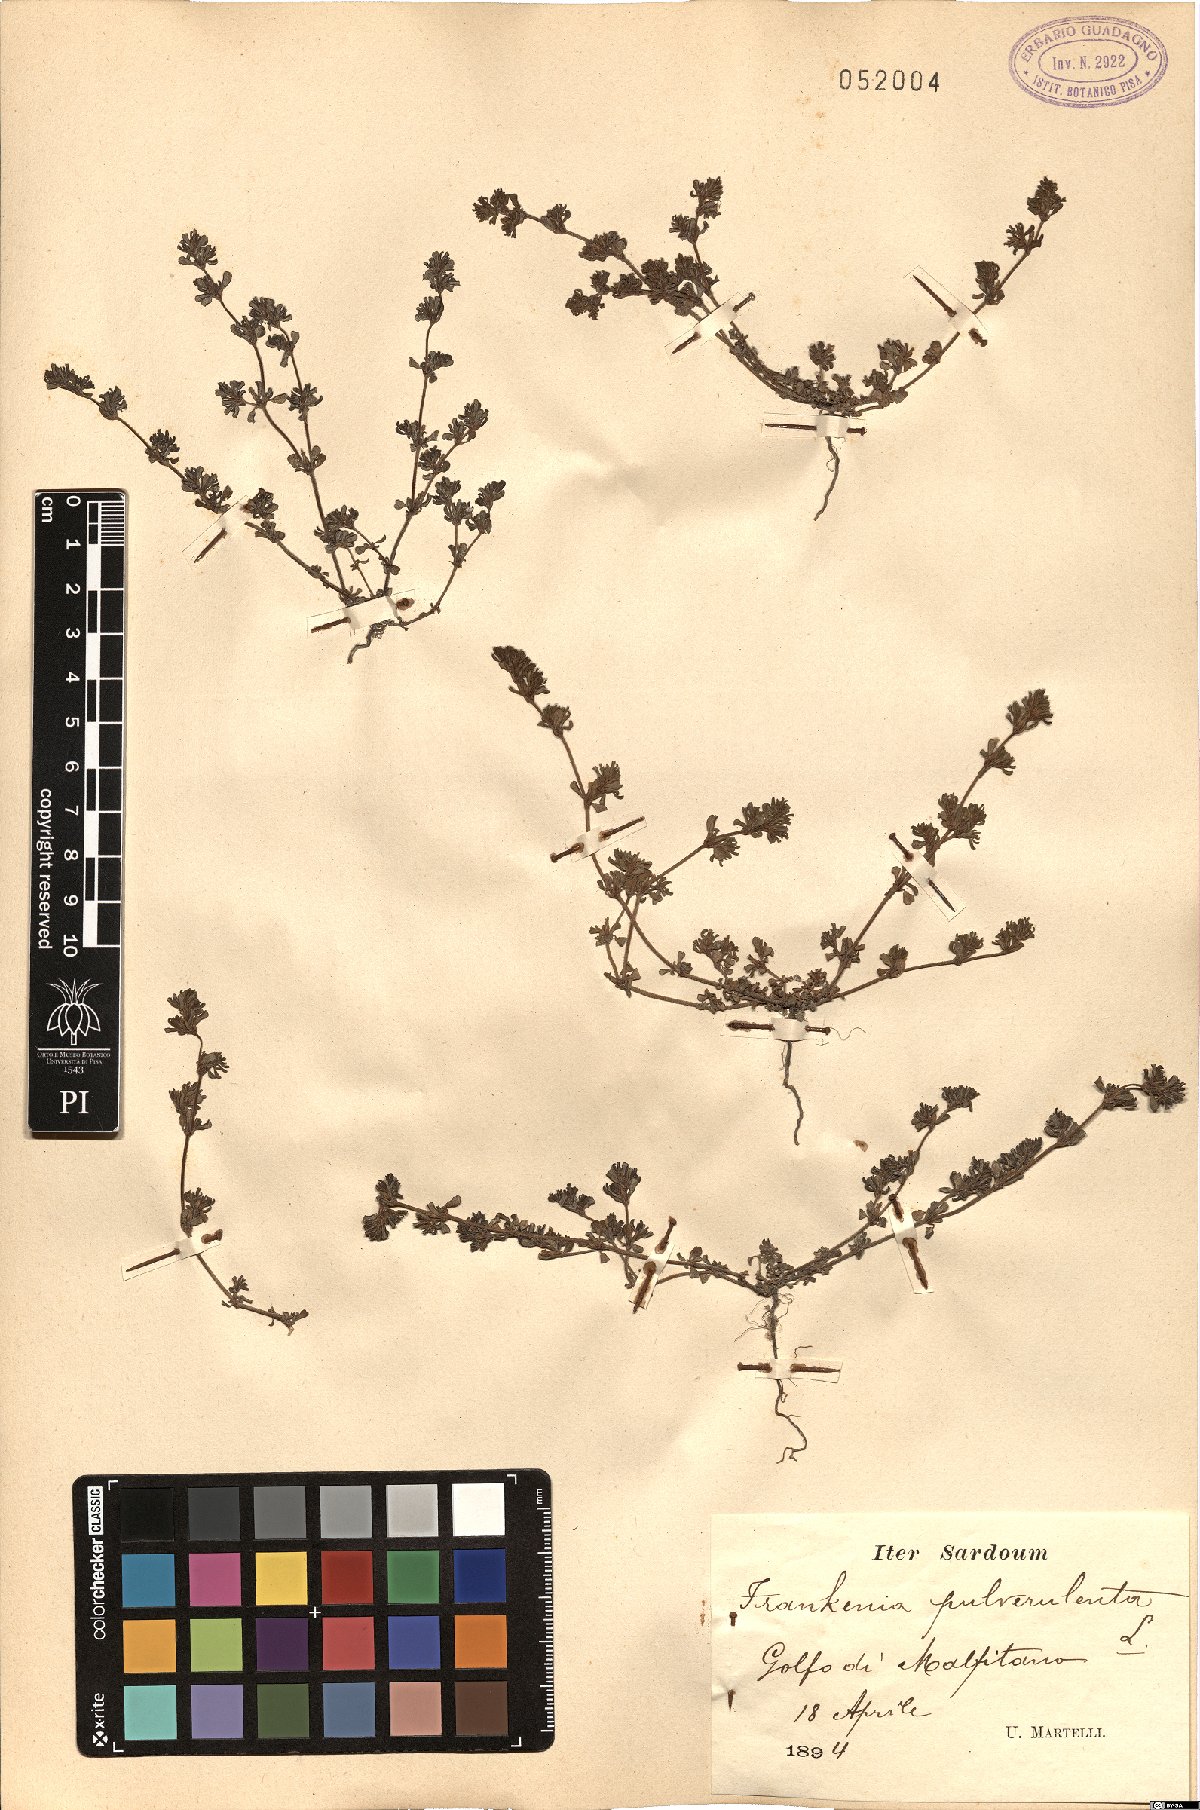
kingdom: Plantae
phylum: Tracheophyta
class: Magnoliopsida
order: Caryophyllales
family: Frankeniaceae
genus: Frankenia
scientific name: Frankenia pulverulenta
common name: European seaheath
